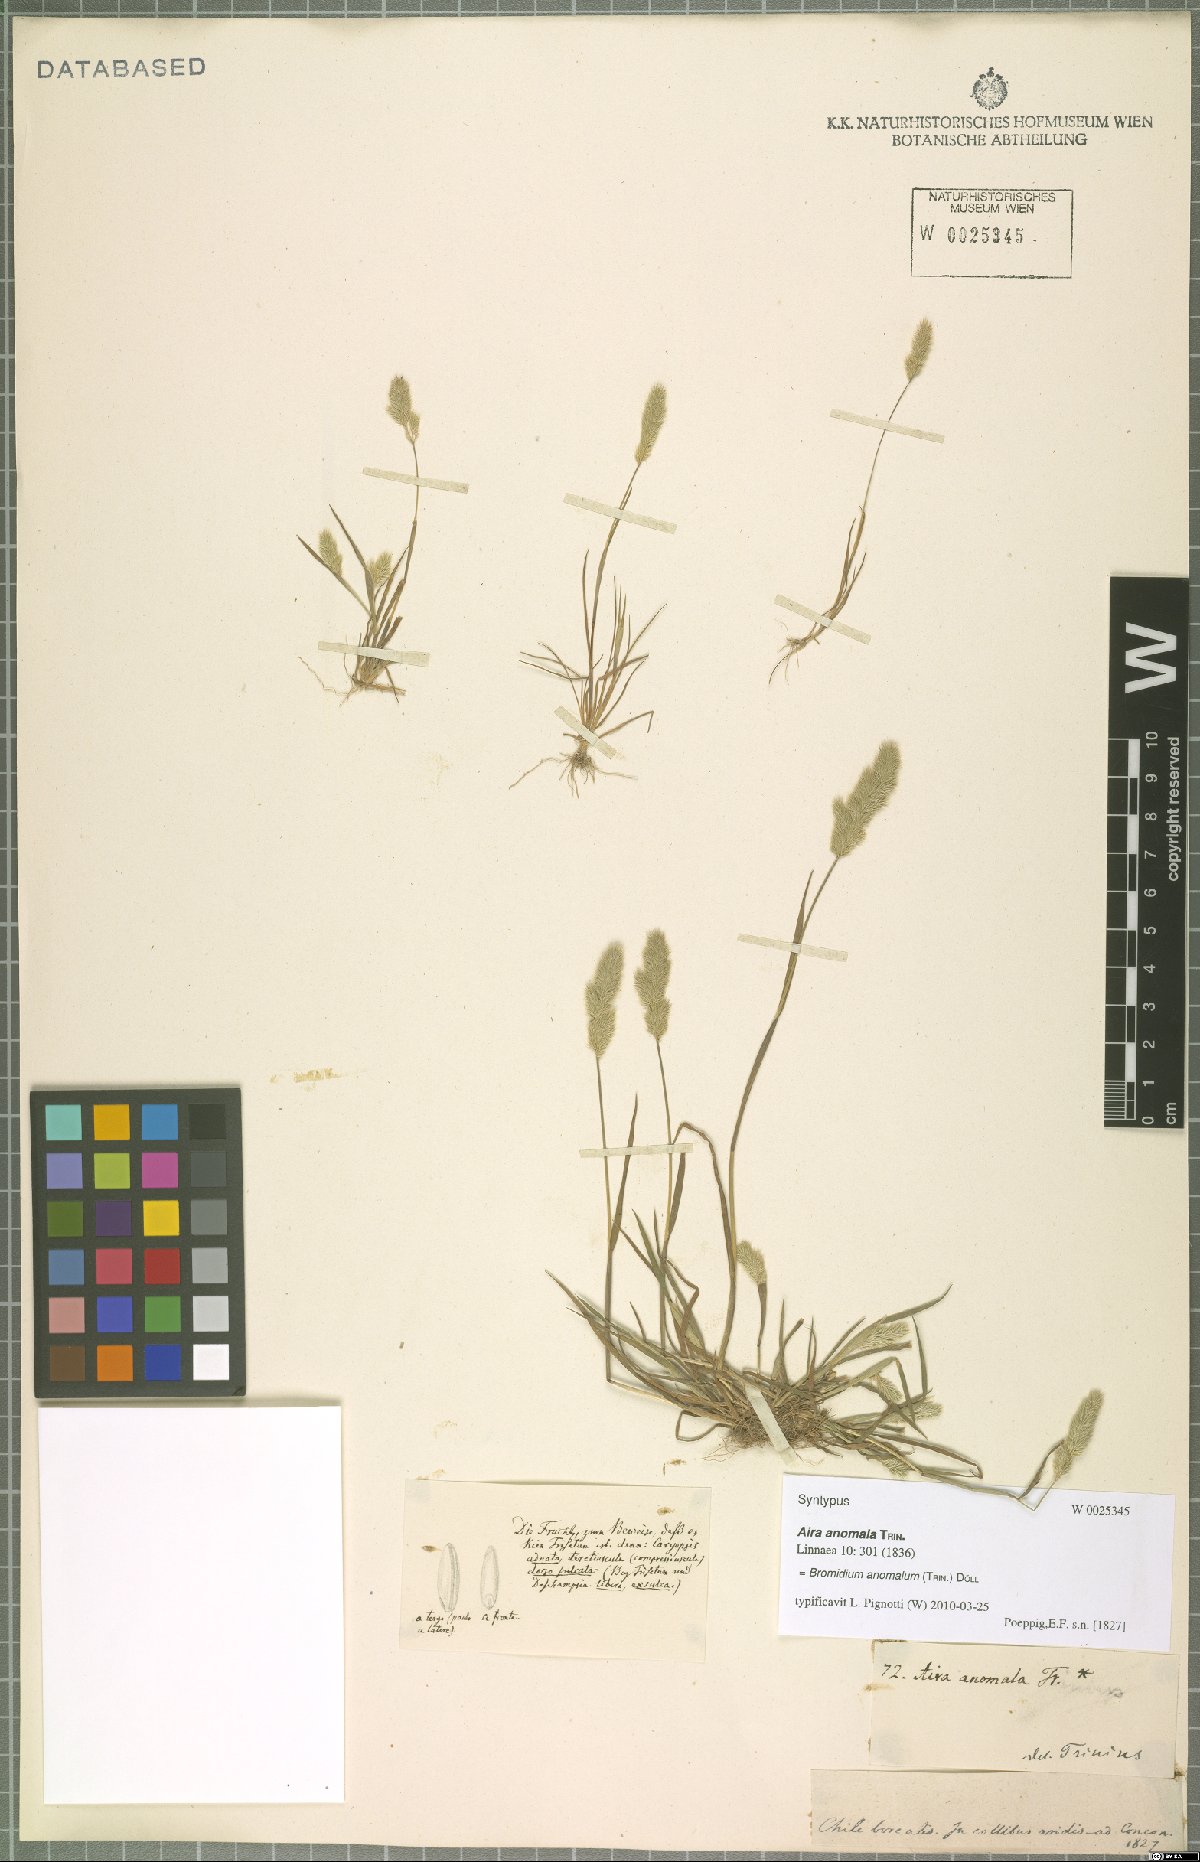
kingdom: Plantae
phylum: Tracheophyta
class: Liliopsida
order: Poales
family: Poaceae
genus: Agrostis
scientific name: Agrostis koelerioides
